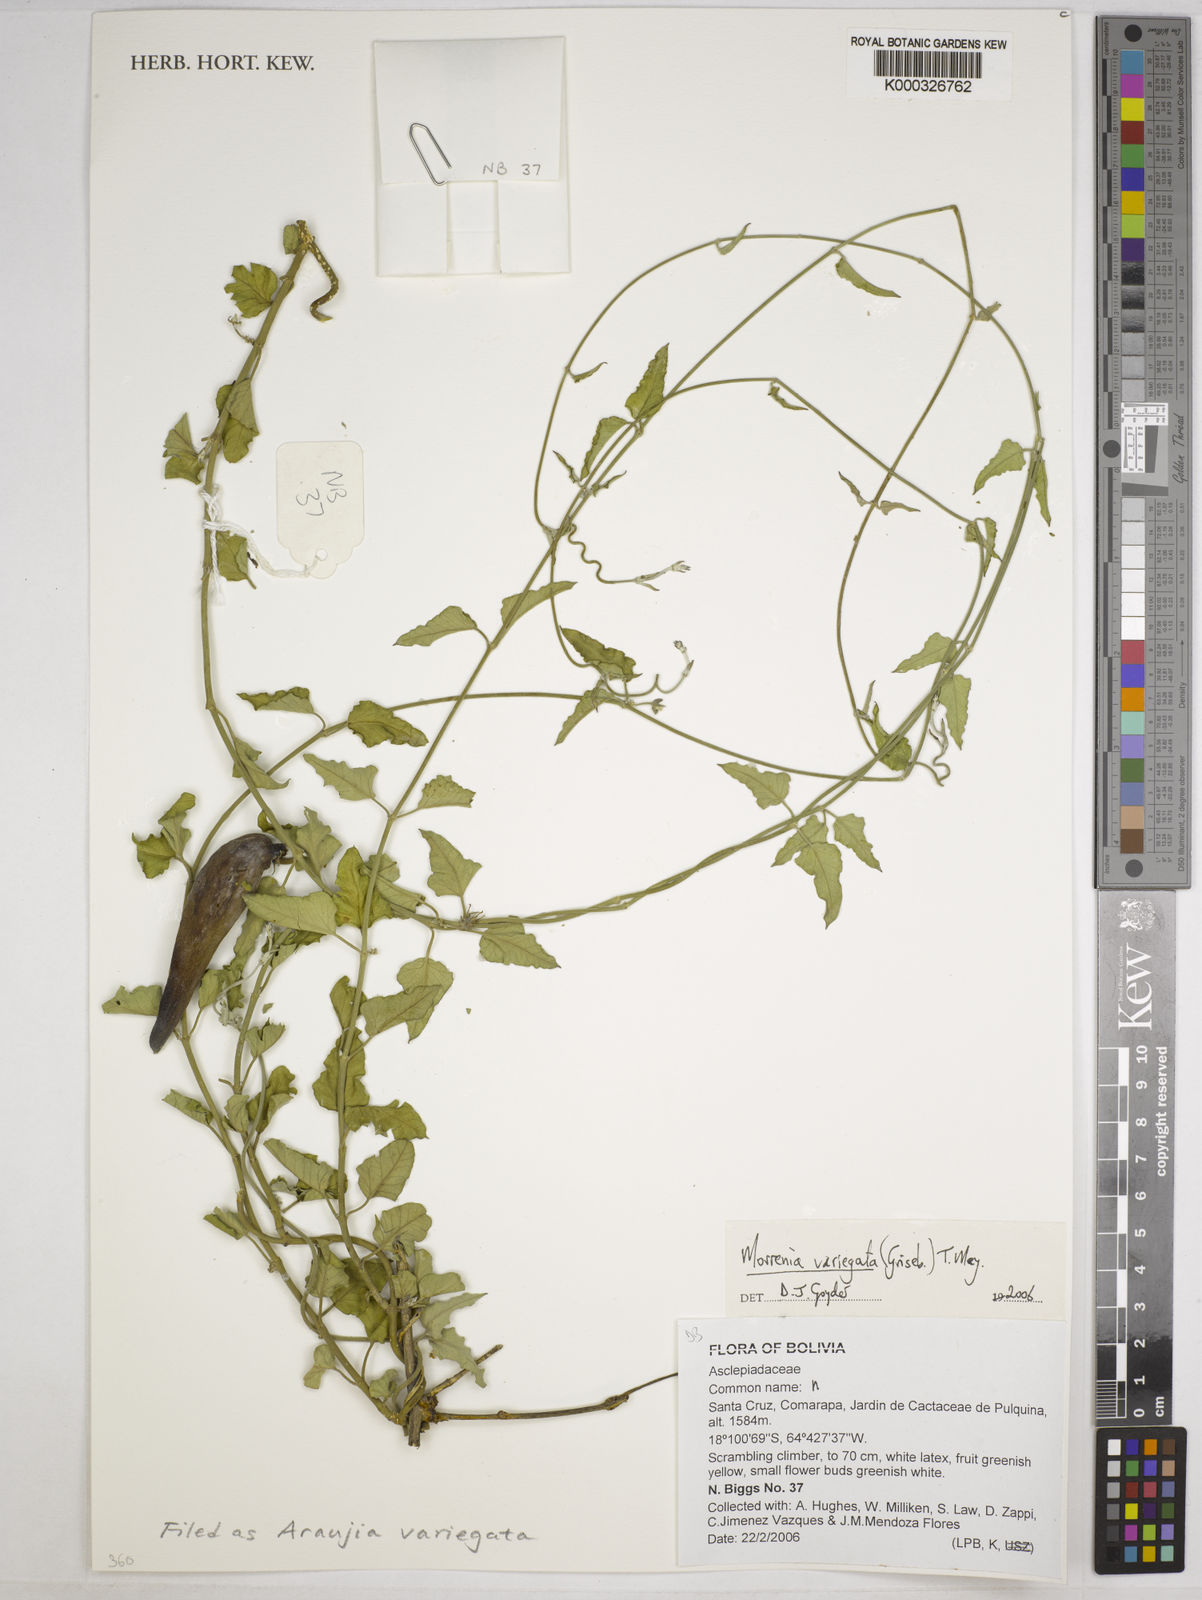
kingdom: Plantae
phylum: Tracheophyta
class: Magnoliopsida
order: Gentianales
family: Apocynaceae
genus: Araujia
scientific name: Araujia variegata
